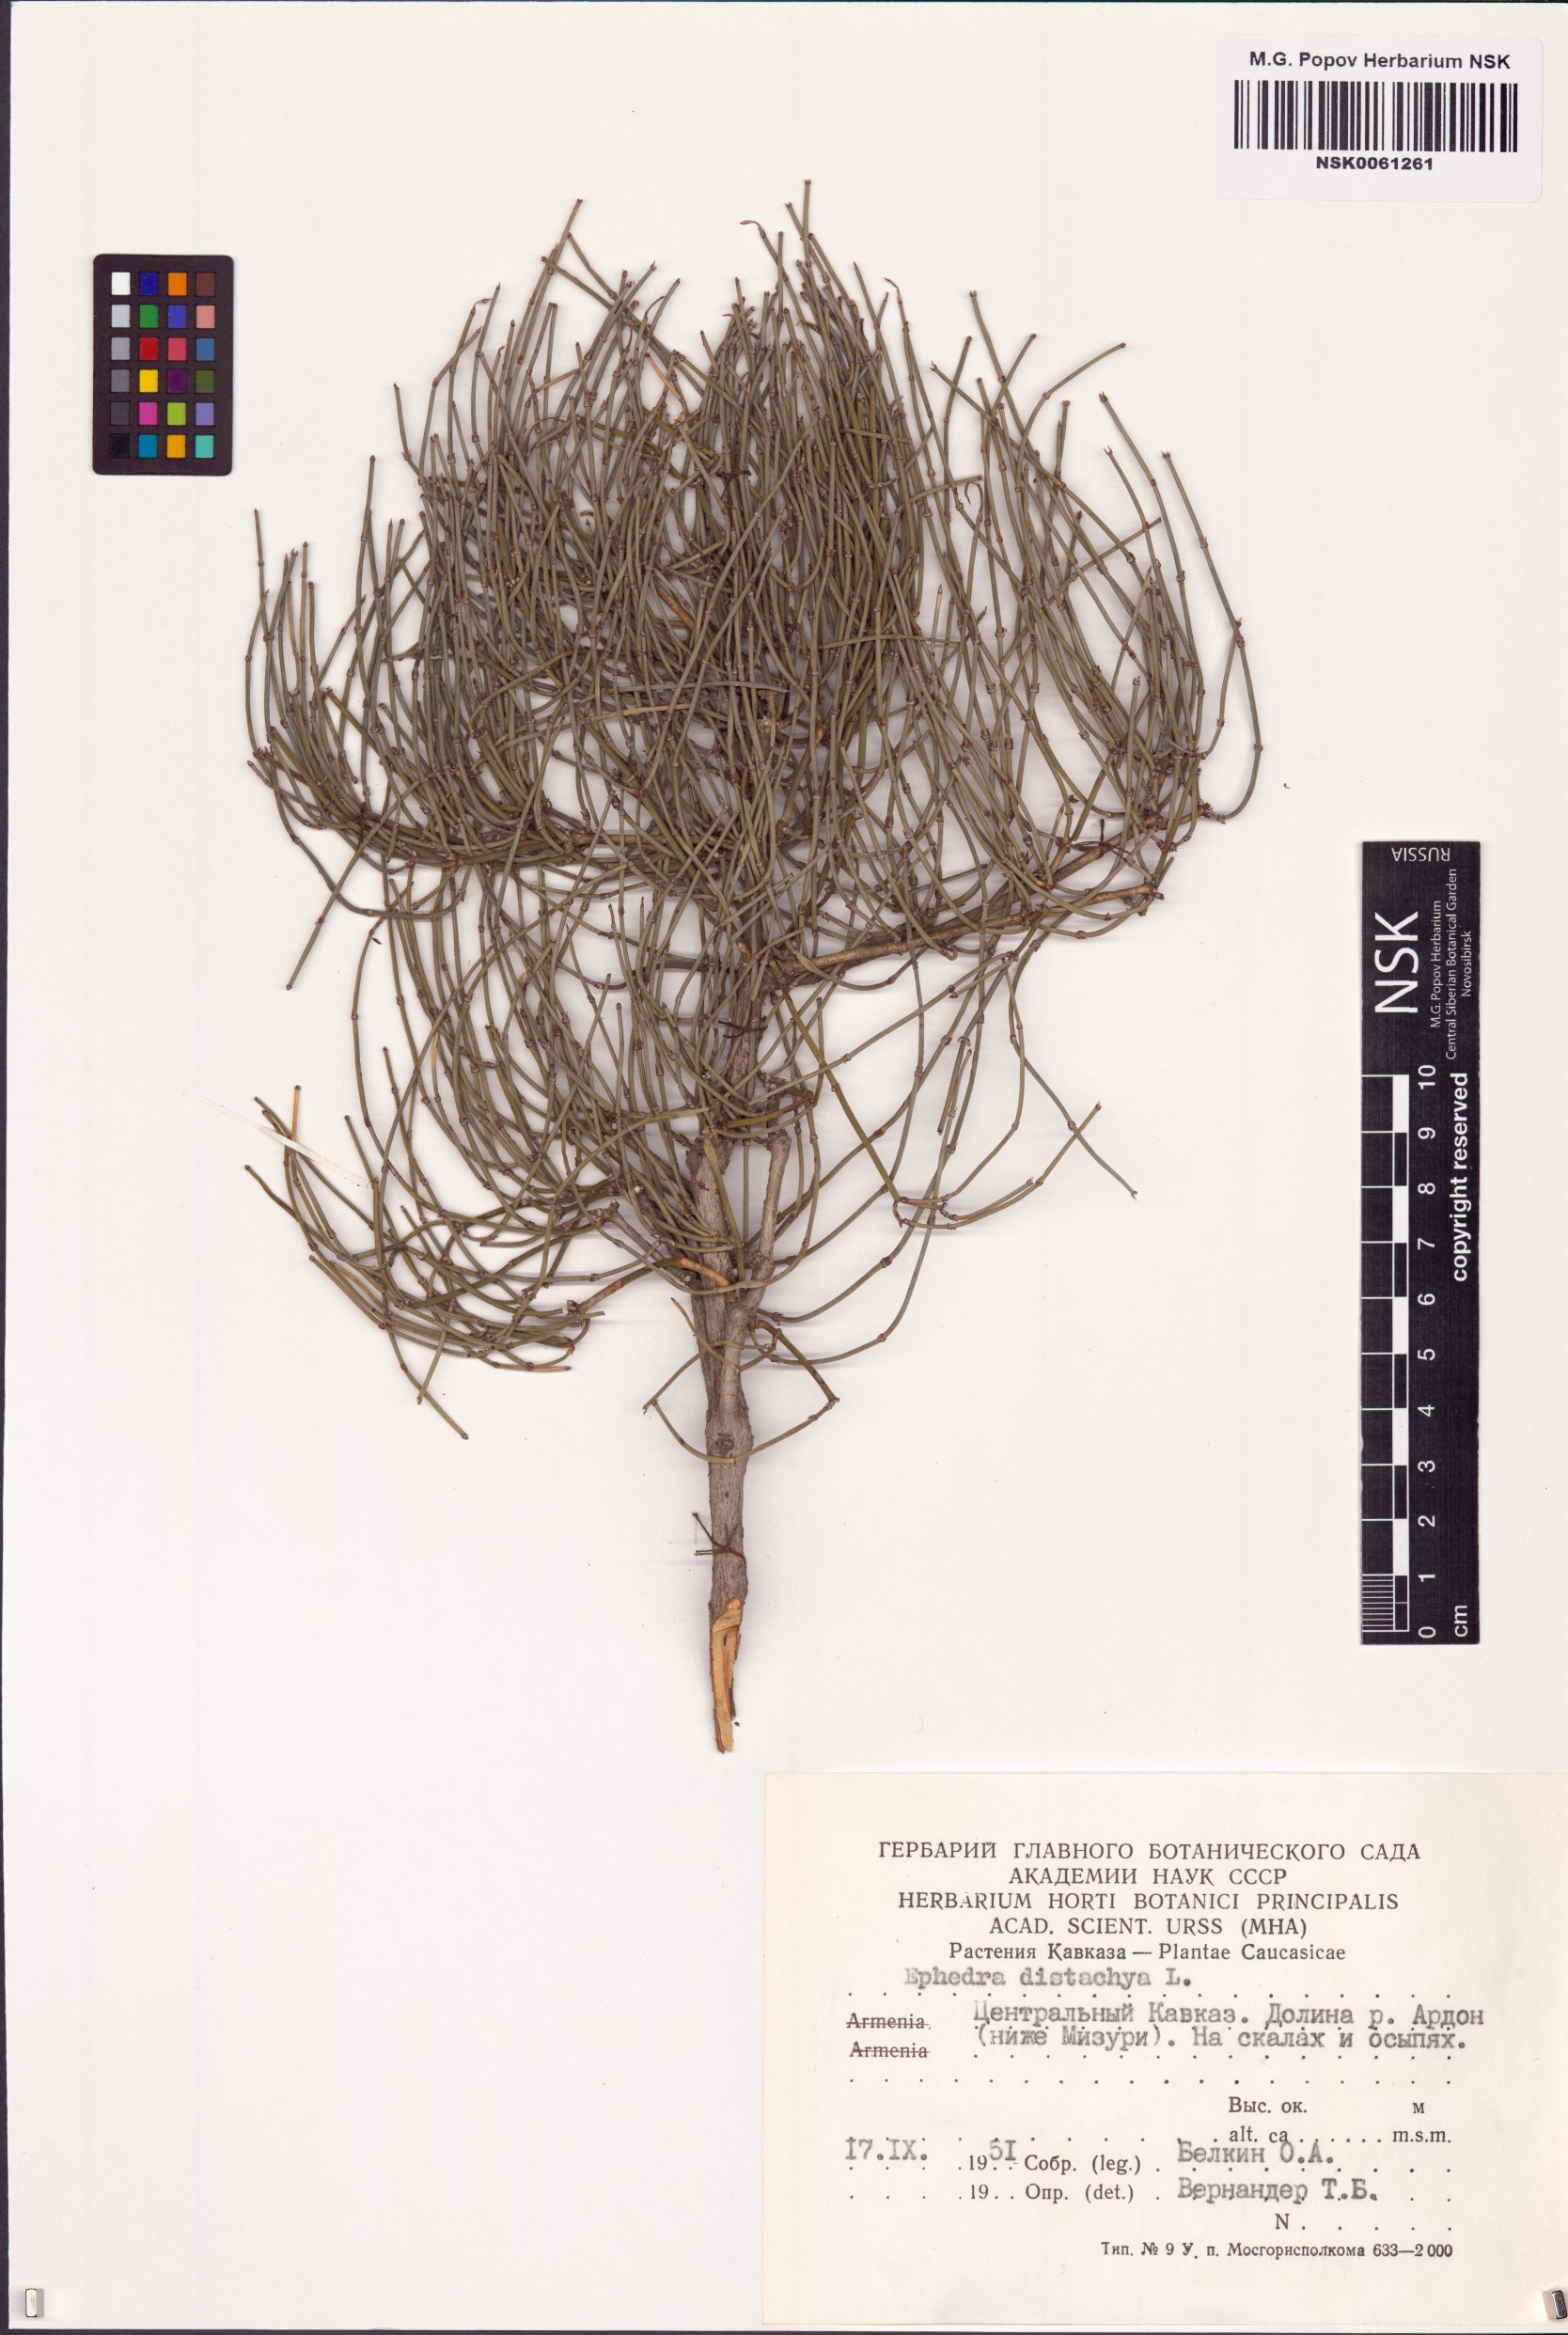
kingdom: Plantae
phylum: Tracheophyta
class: Gnetopsida
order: Ephedrales
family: Ephedraceae
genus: Ephedra
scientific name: Ephedra distachya
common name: Sea grape
